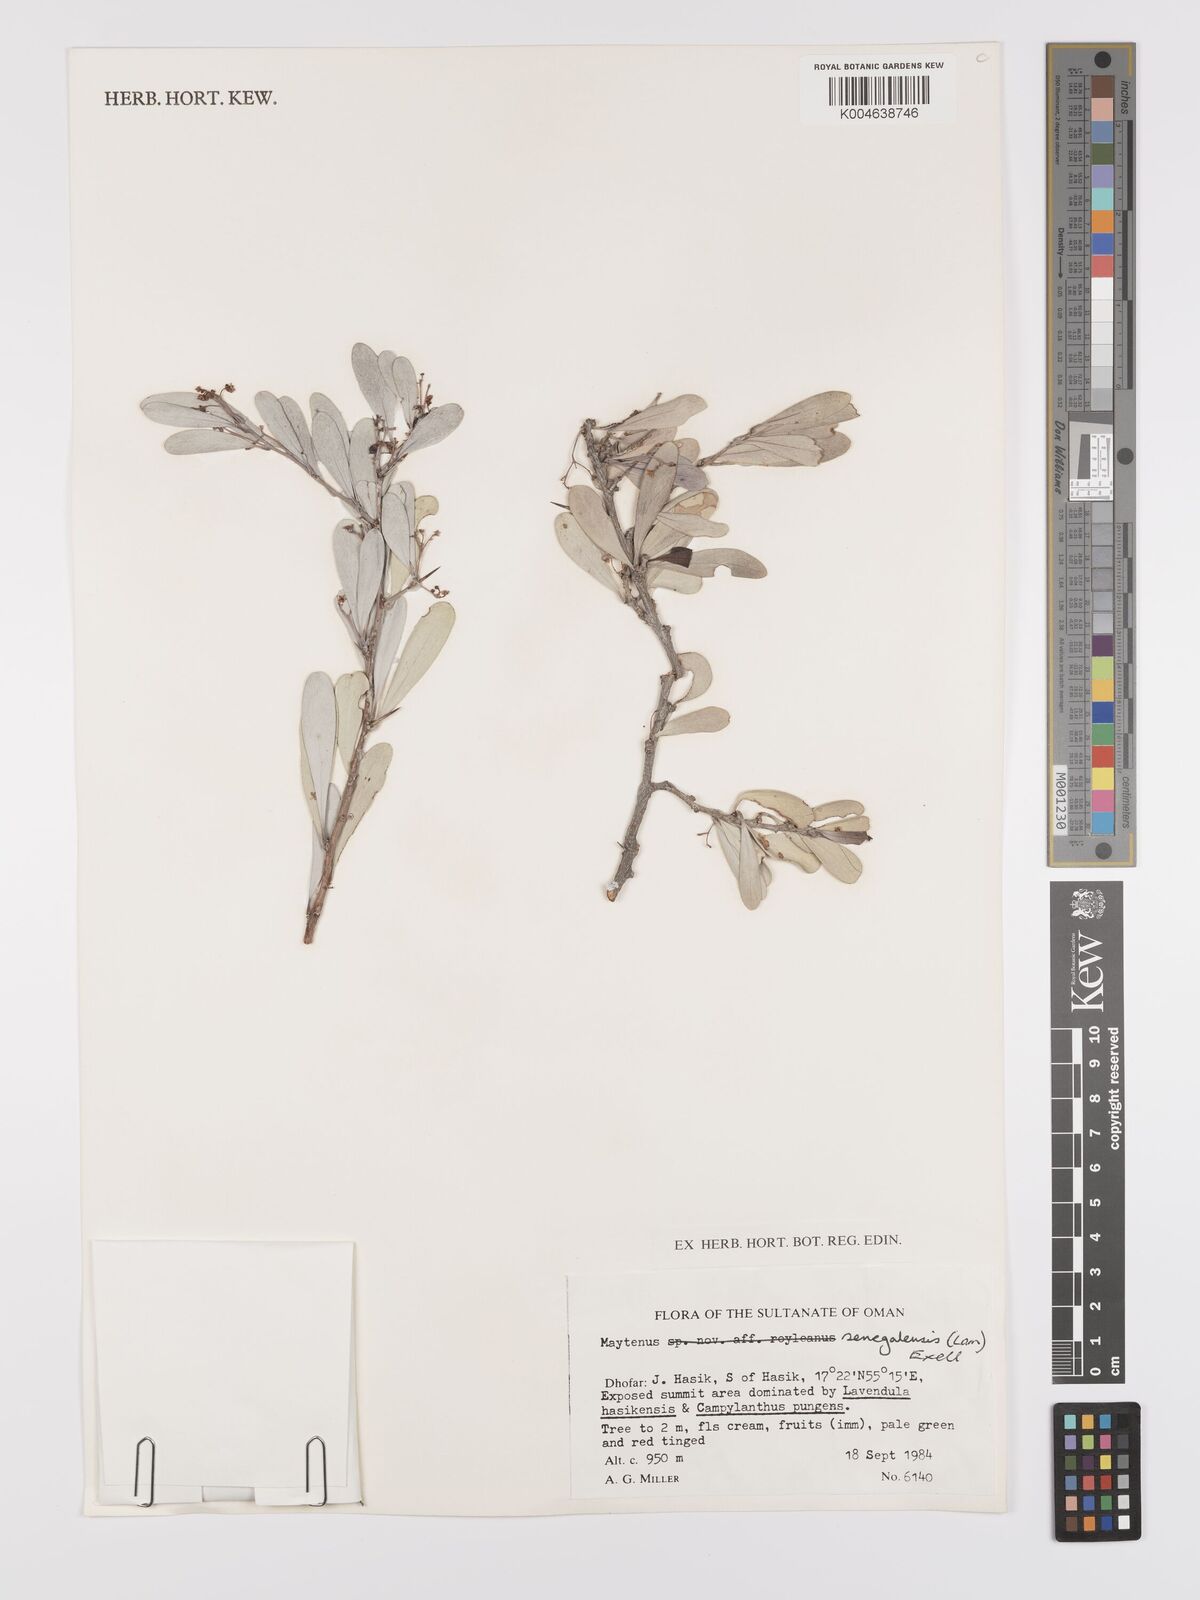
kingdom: Plantae
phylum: Tracheophyta
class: Magnoliopsida
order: Celastrales
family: Celastraceae
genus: Gymnosporia
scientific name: Gymnosporia senegalensis
